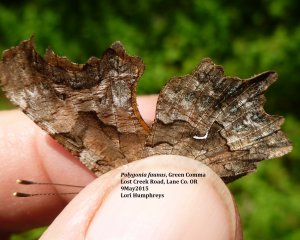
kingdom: Animalia
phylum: Arthropoda
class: Insecta
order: Lepidoptera
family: Nymphalidae
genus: Polygonia
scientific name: Polygonia faunus
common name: Green Comma
